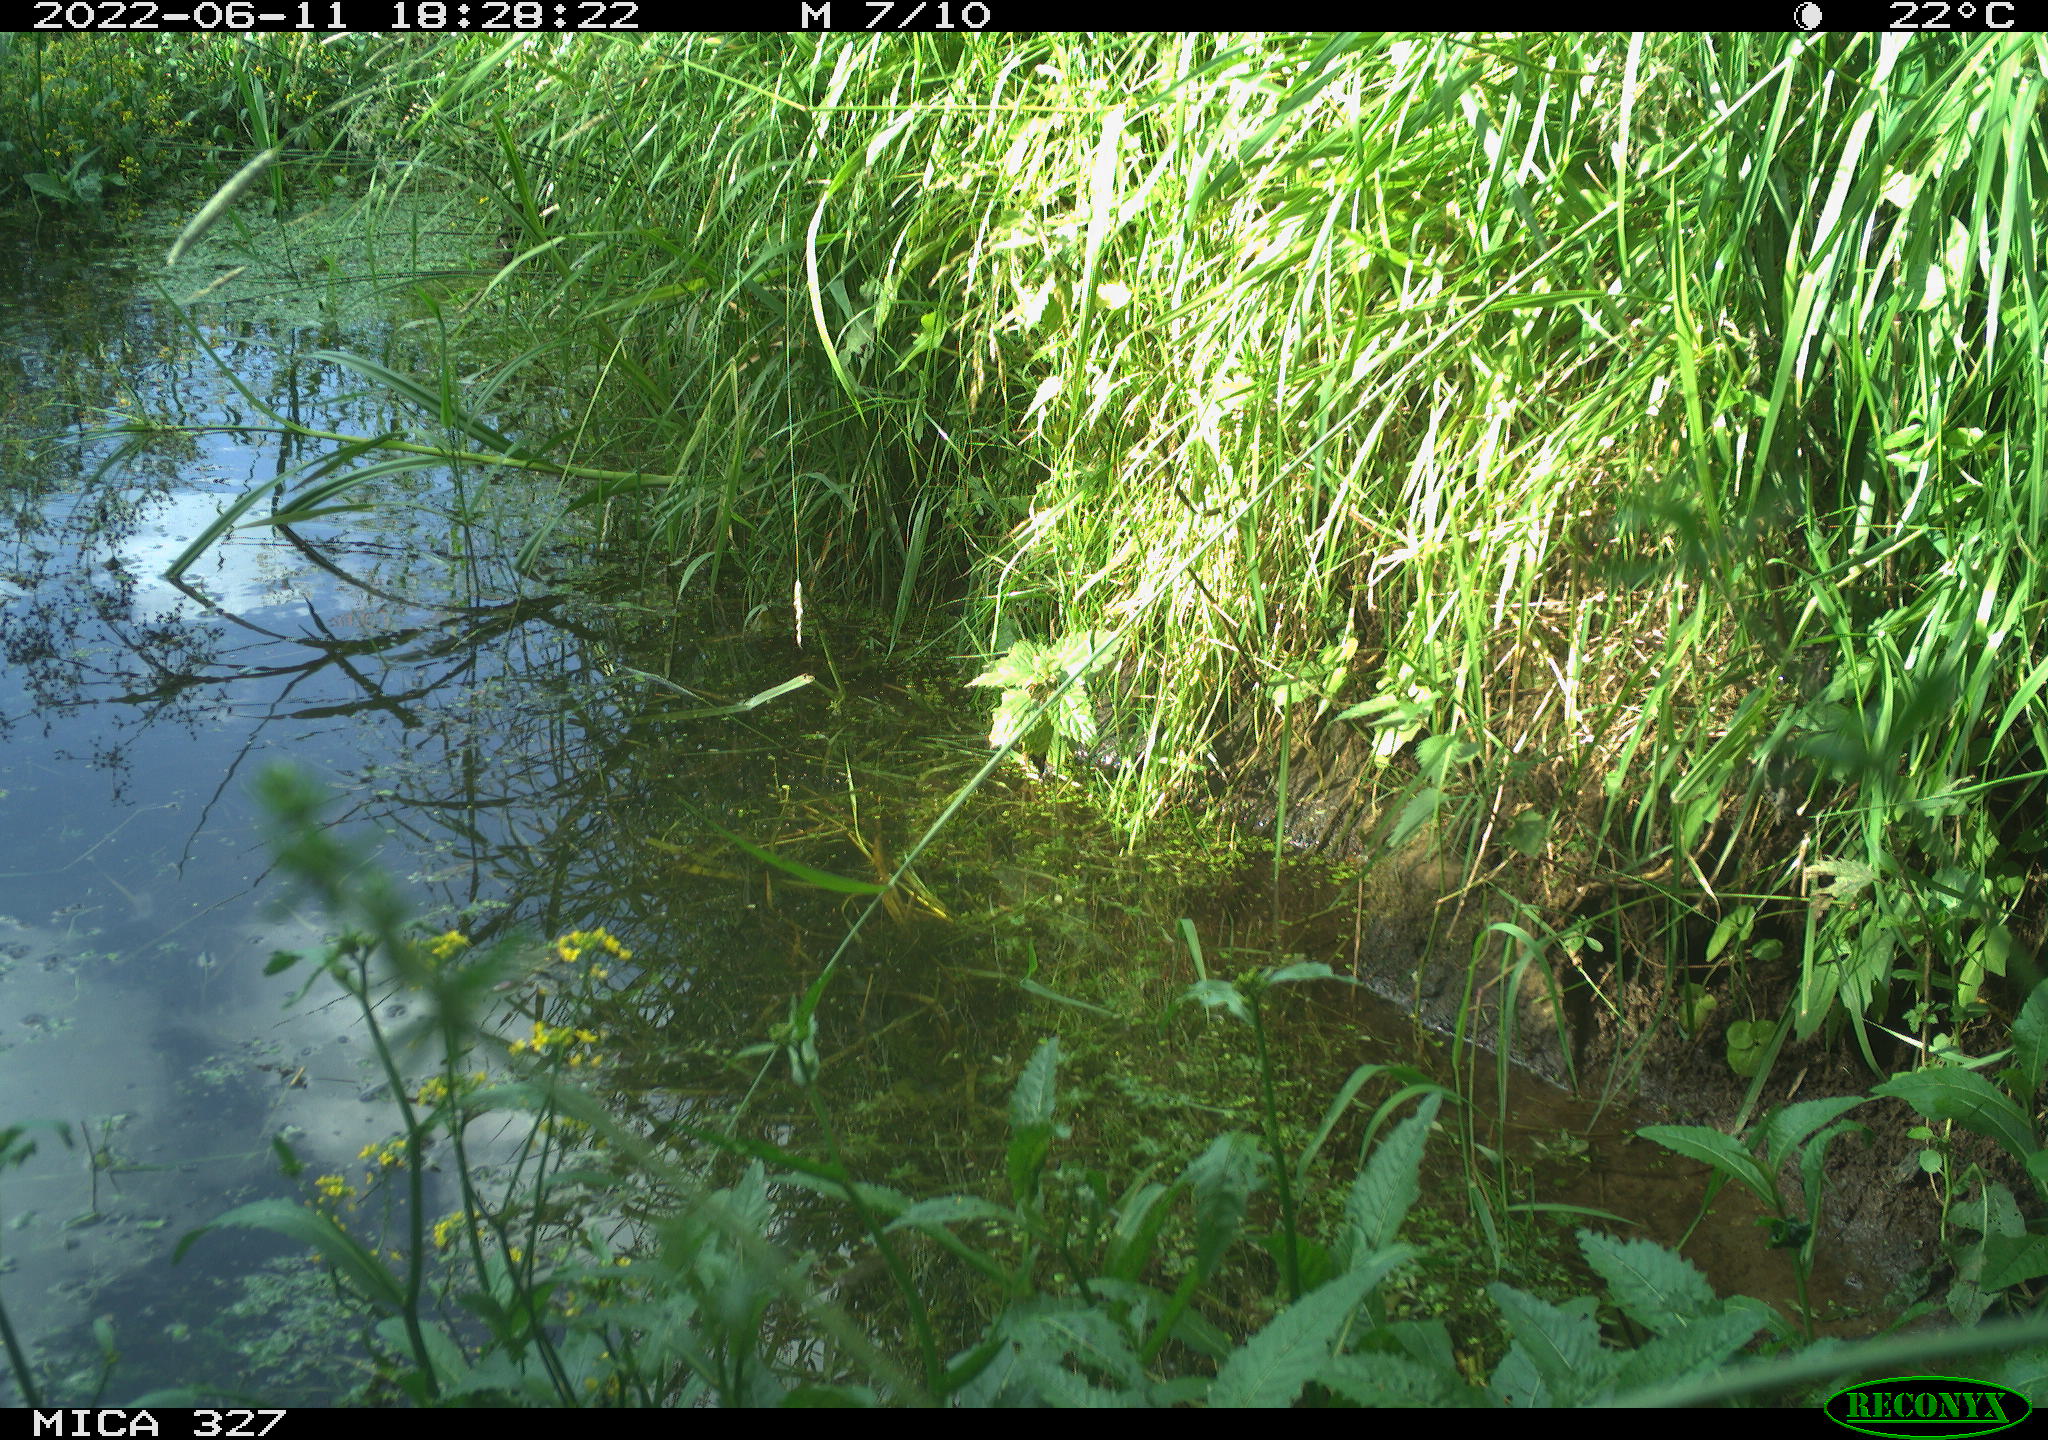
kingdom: Animalia
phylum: Chordata
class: Aves
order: Gruiformes
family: Rallidae
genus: Gallinula
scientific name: Gallinula chloropus
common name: Common moorhen
